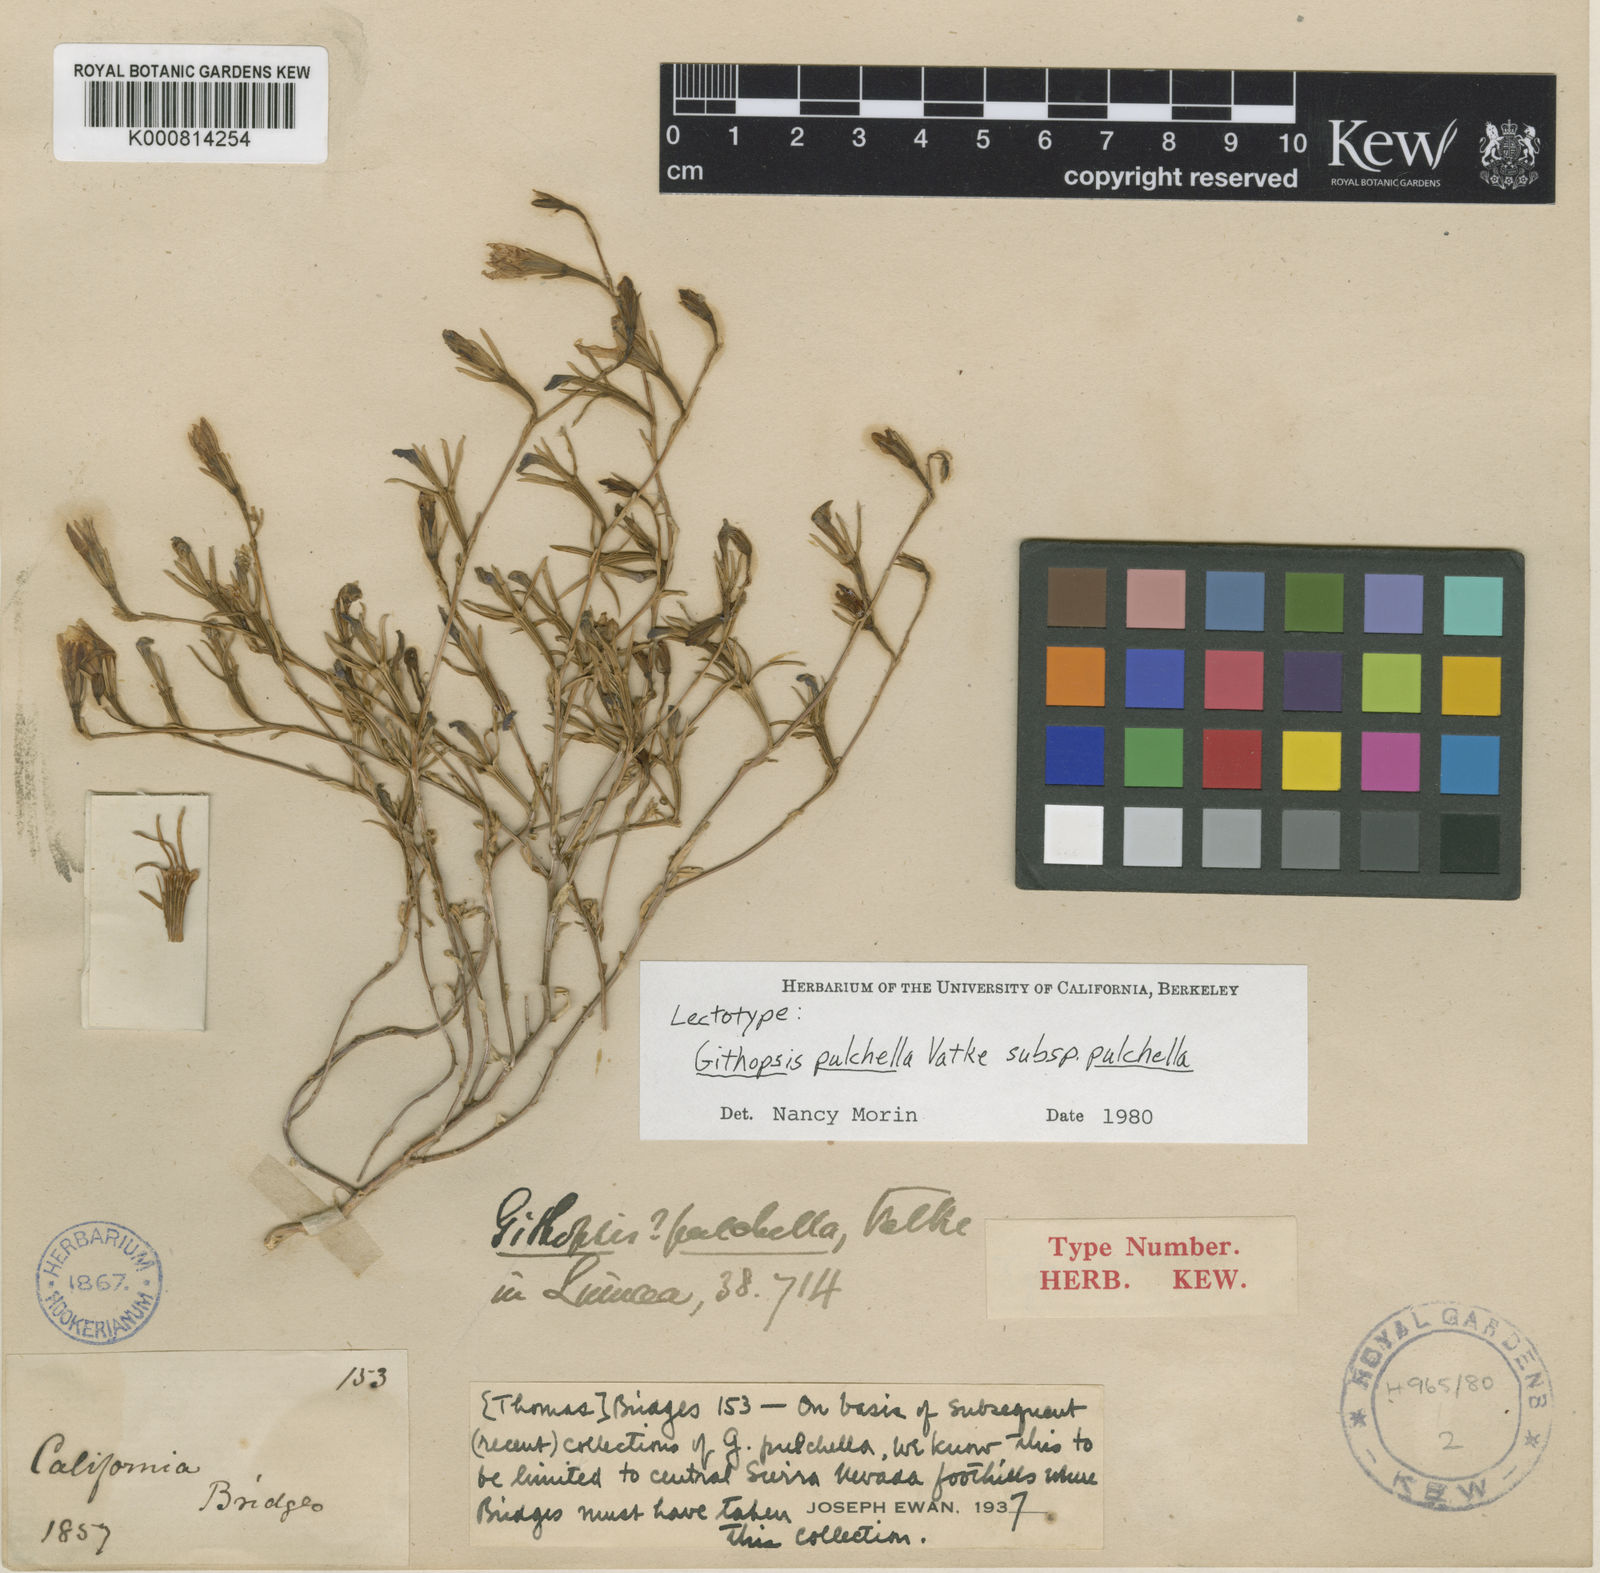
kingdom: Plantae
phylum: Tracheophyta
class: Magnoliopsida
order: Asterales
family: Campanulaceae
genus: Githopsis
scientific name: Githopsis pulchella
